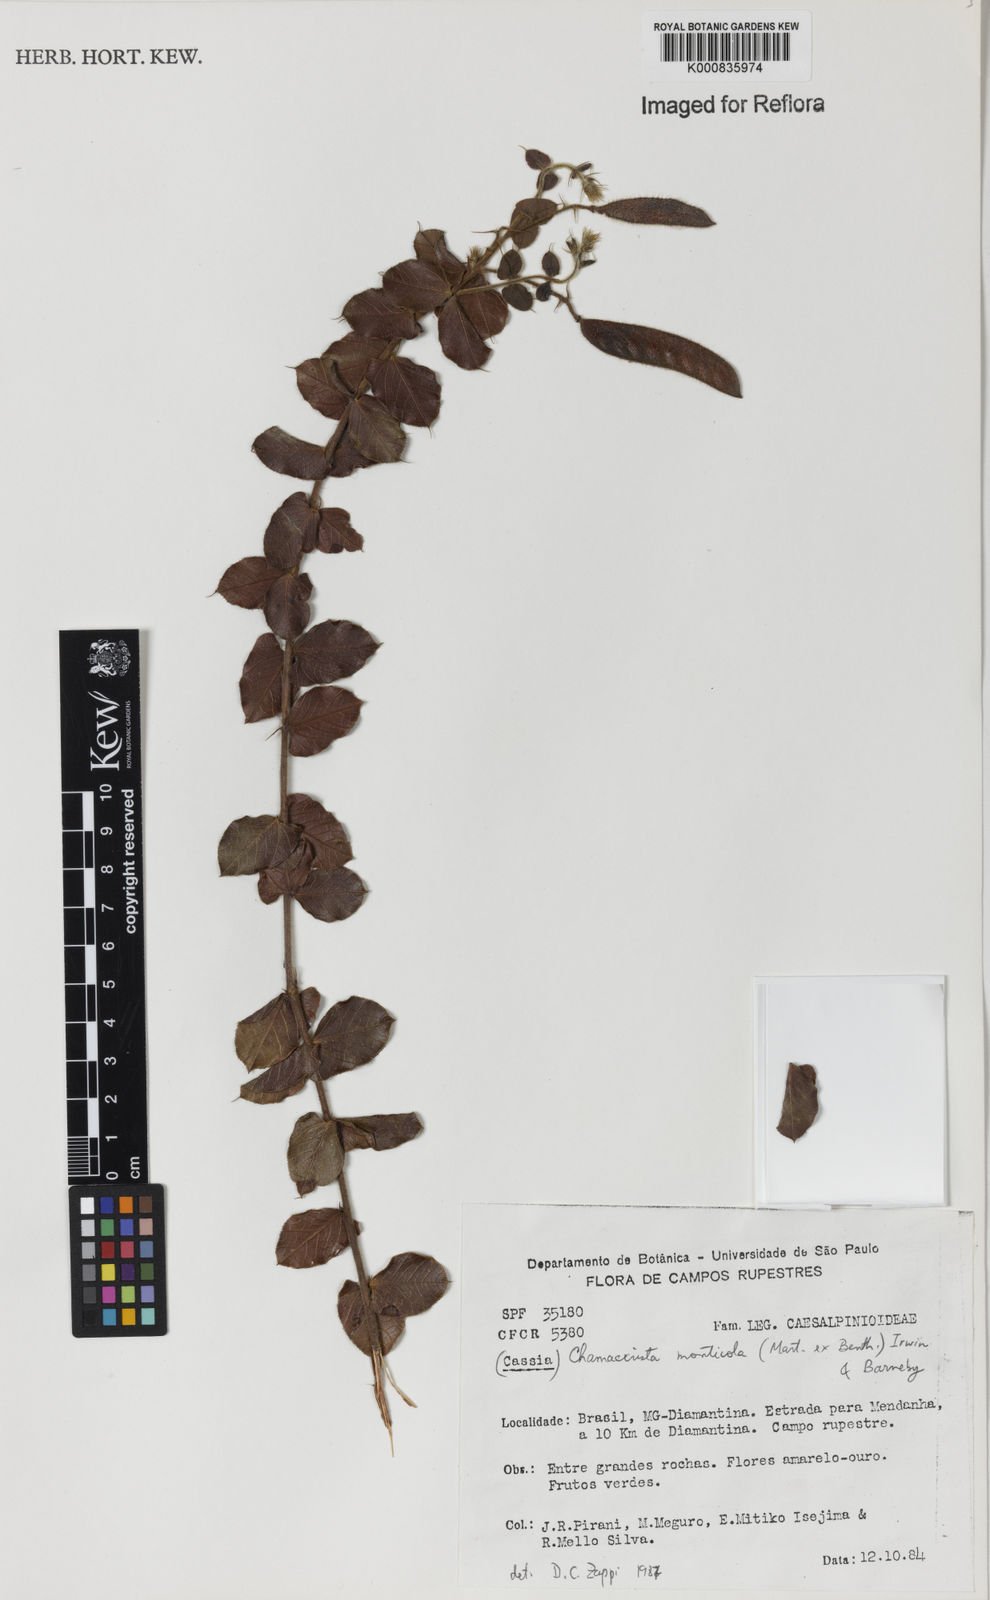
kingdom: Plantae
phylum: Tracheophyta
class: Magnoliopsida
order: Fabales
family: Fabaceae
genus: Chamaecrista
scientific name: Chamaecrista monticola
